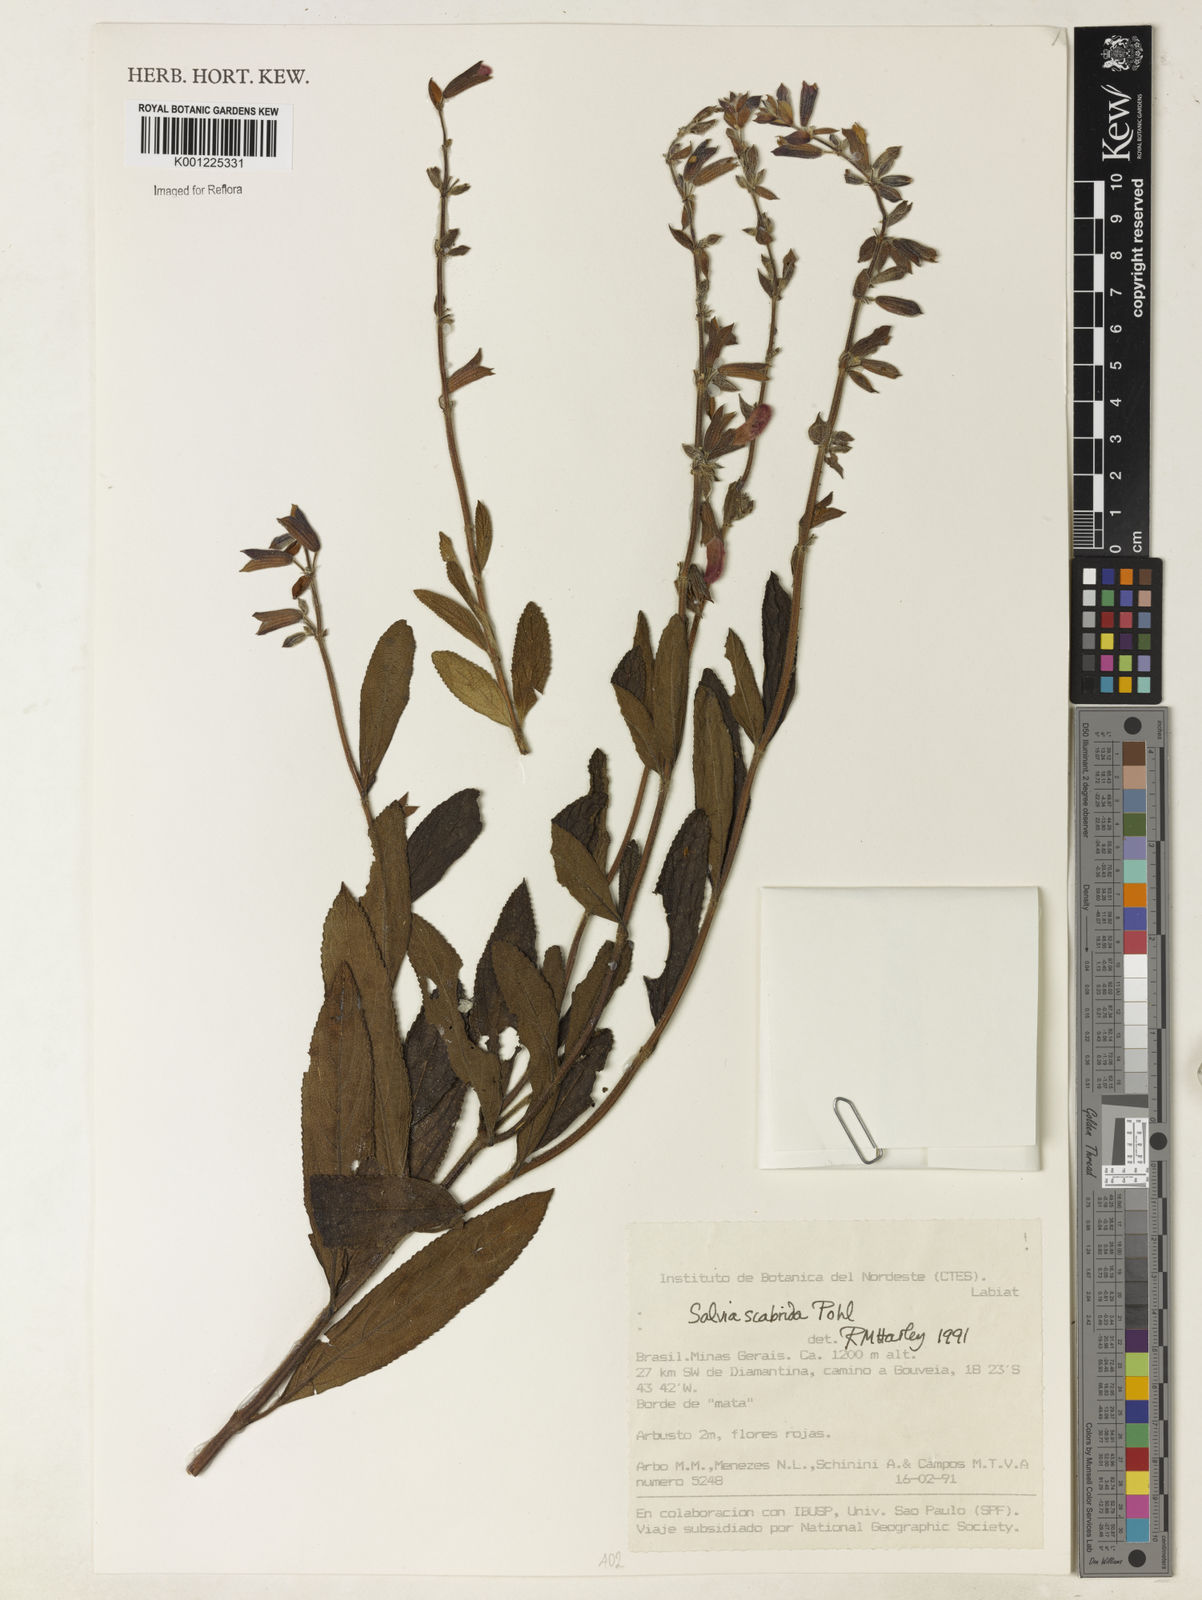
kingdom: Plantae
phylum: Tracheophyta
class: Magnoliopsida
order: Lamiales
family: Lamiaceae
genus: Salvia
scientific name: Salvia scabrida
